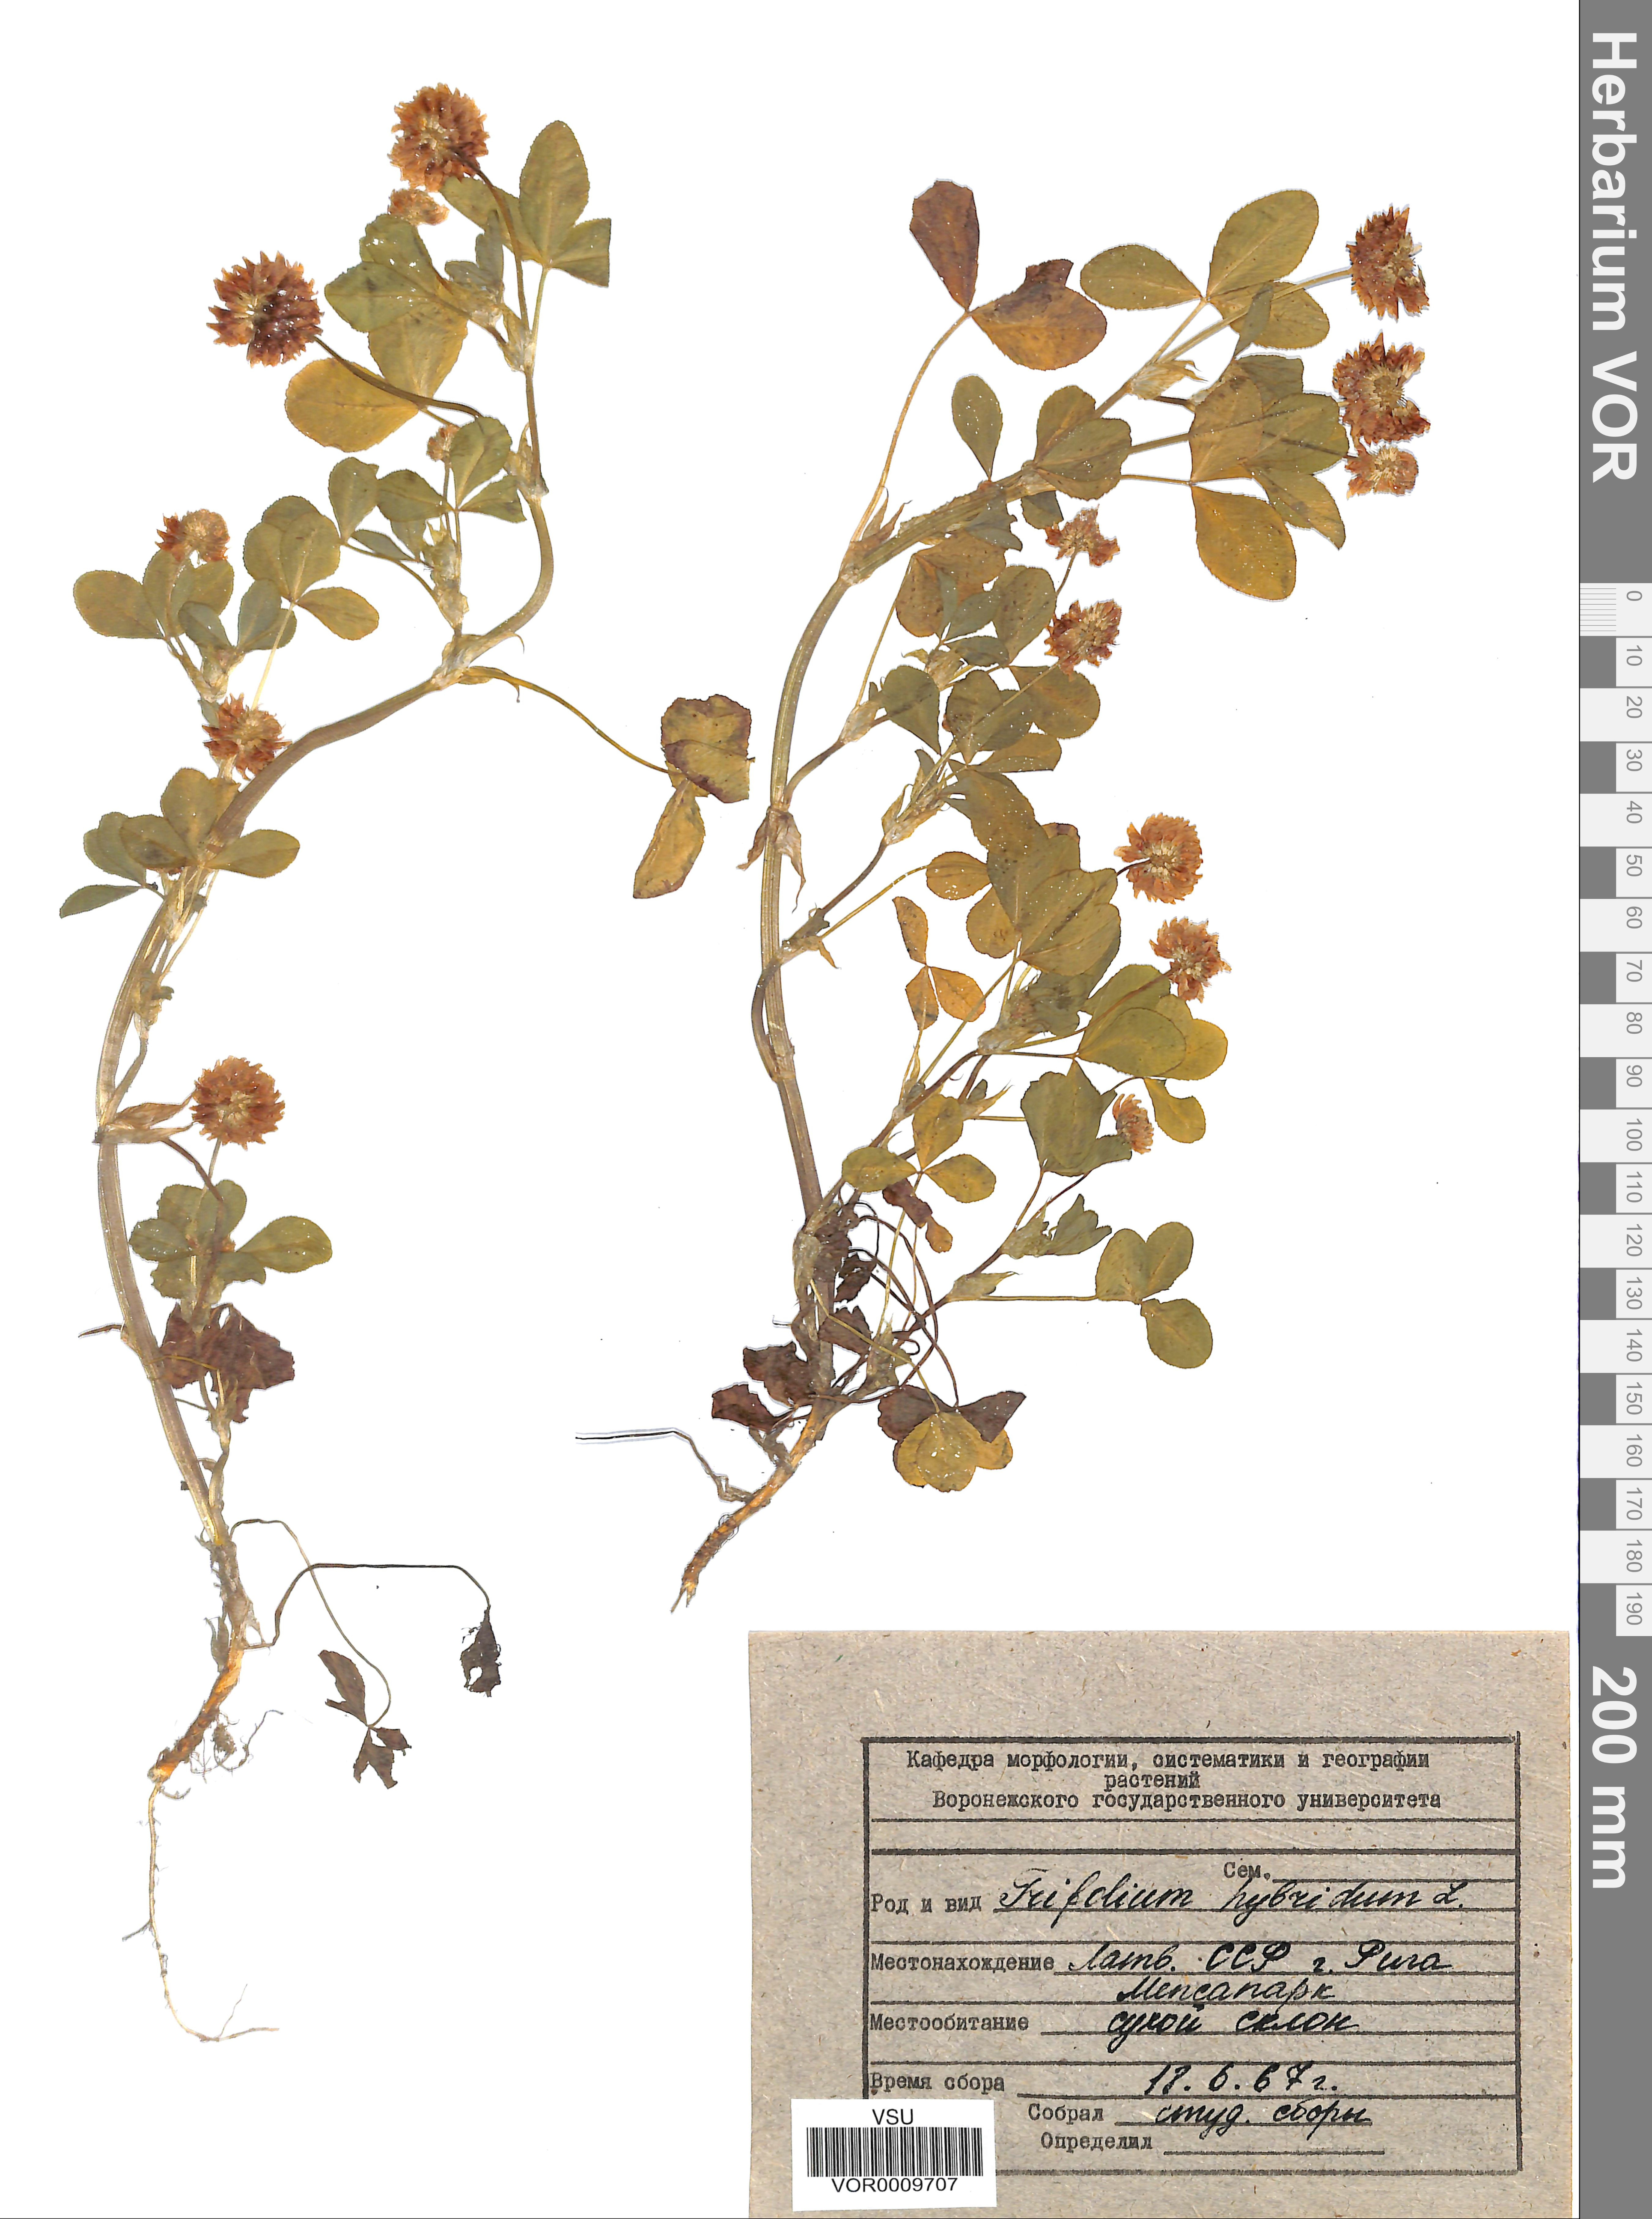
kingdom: Plantae
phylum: Tracheophyta
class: Magnoliopsida
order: Fabales
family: Fabaceae
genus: Trifolium
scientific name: Trifolium hybridum
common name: Alsike clover
